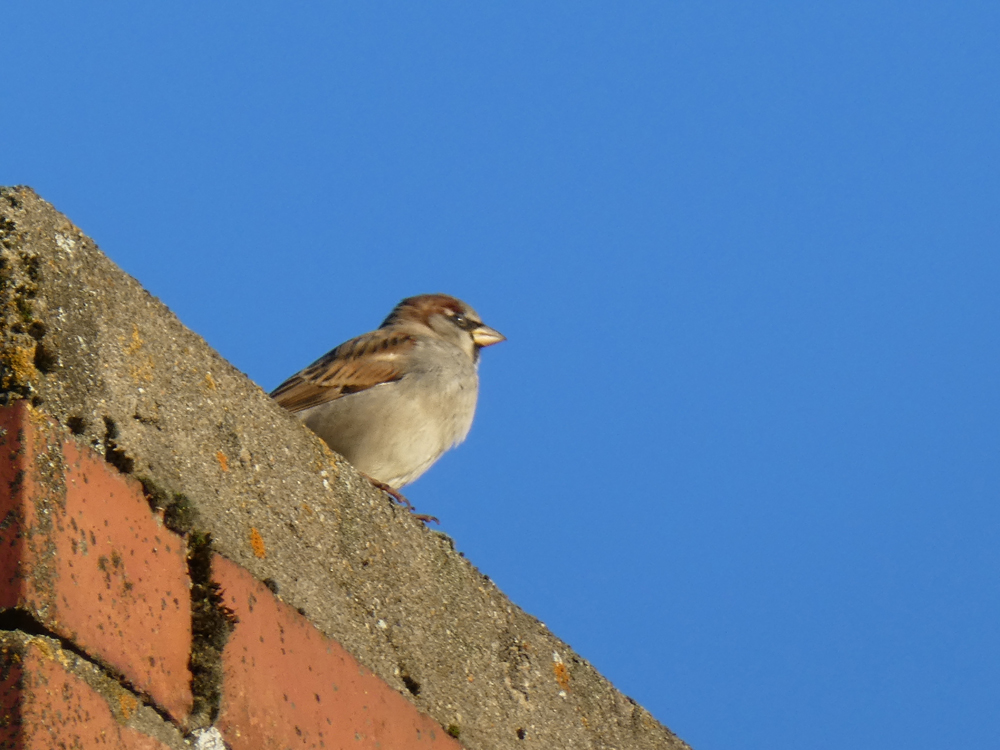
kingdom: Animalia
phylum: Chordata
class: Aves
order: Passeriformes
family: Passeridae
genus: Passer
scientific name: Passer domesticus
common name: House sparrow
